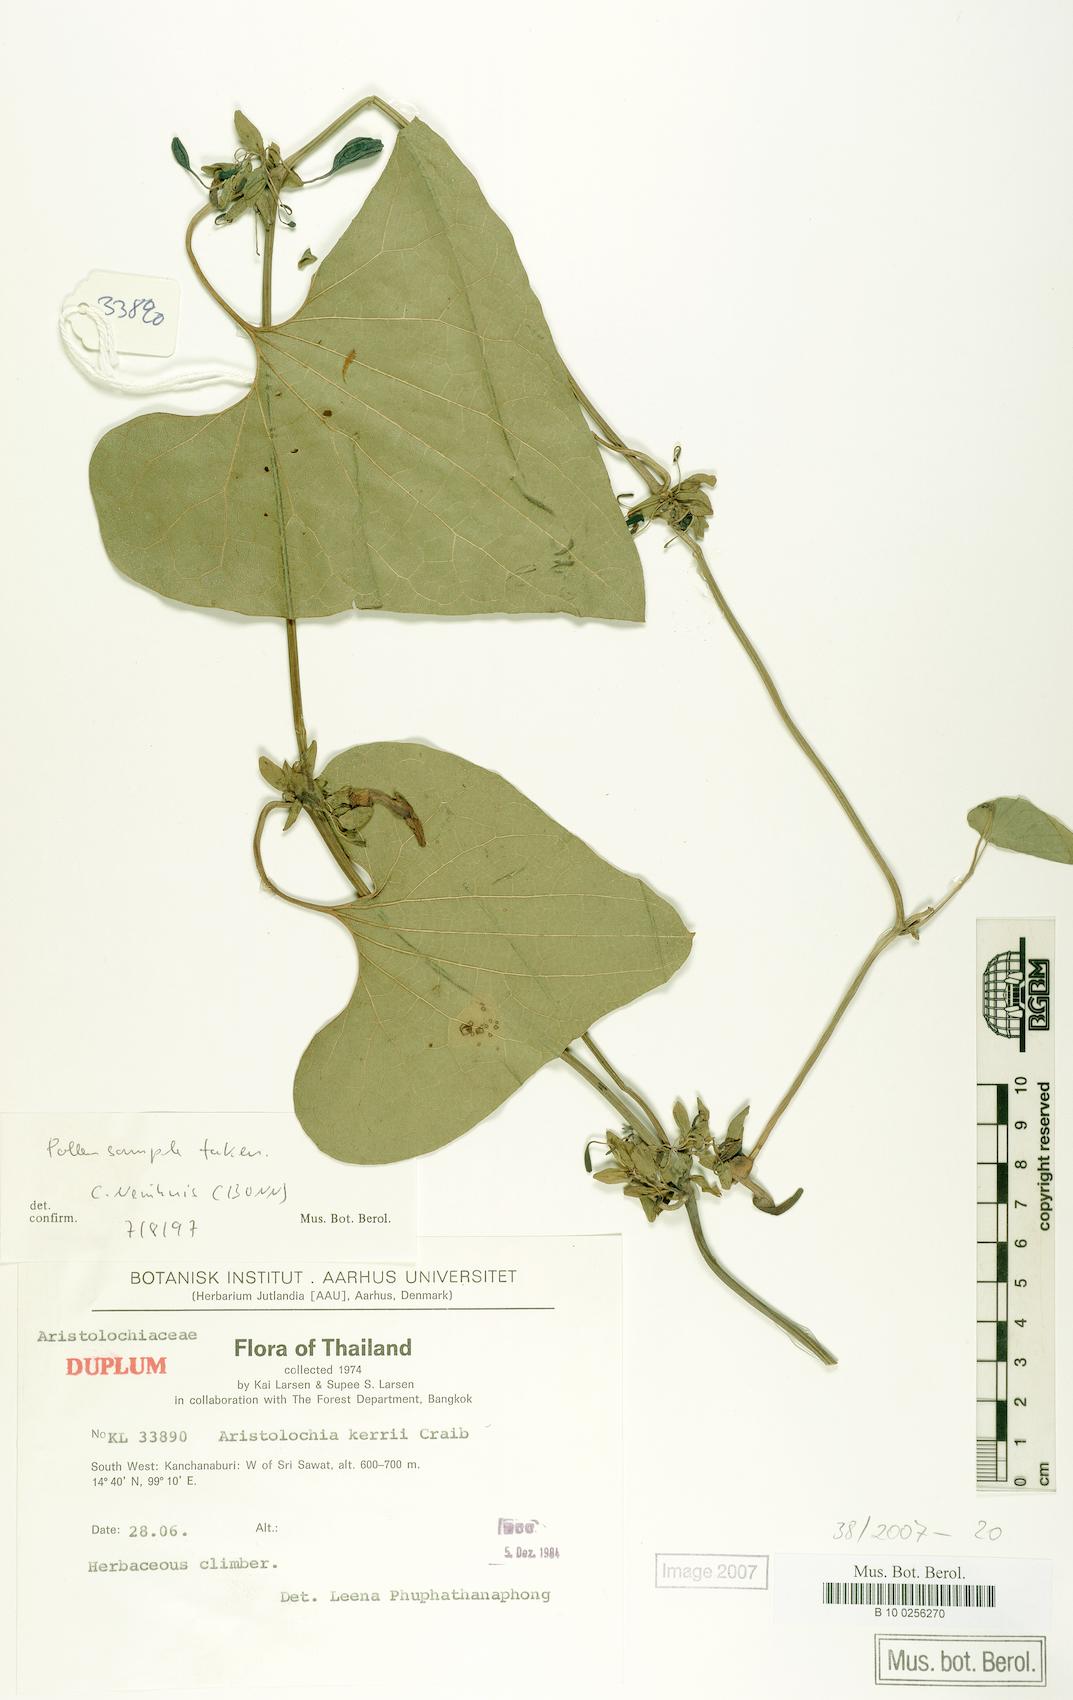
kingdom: Plantae
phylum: Tracheophyta
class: Magnoliopsida
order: Piperales
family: Aristolochiaceae
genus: Aristolochia
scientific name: Aristolochia cambodiana
